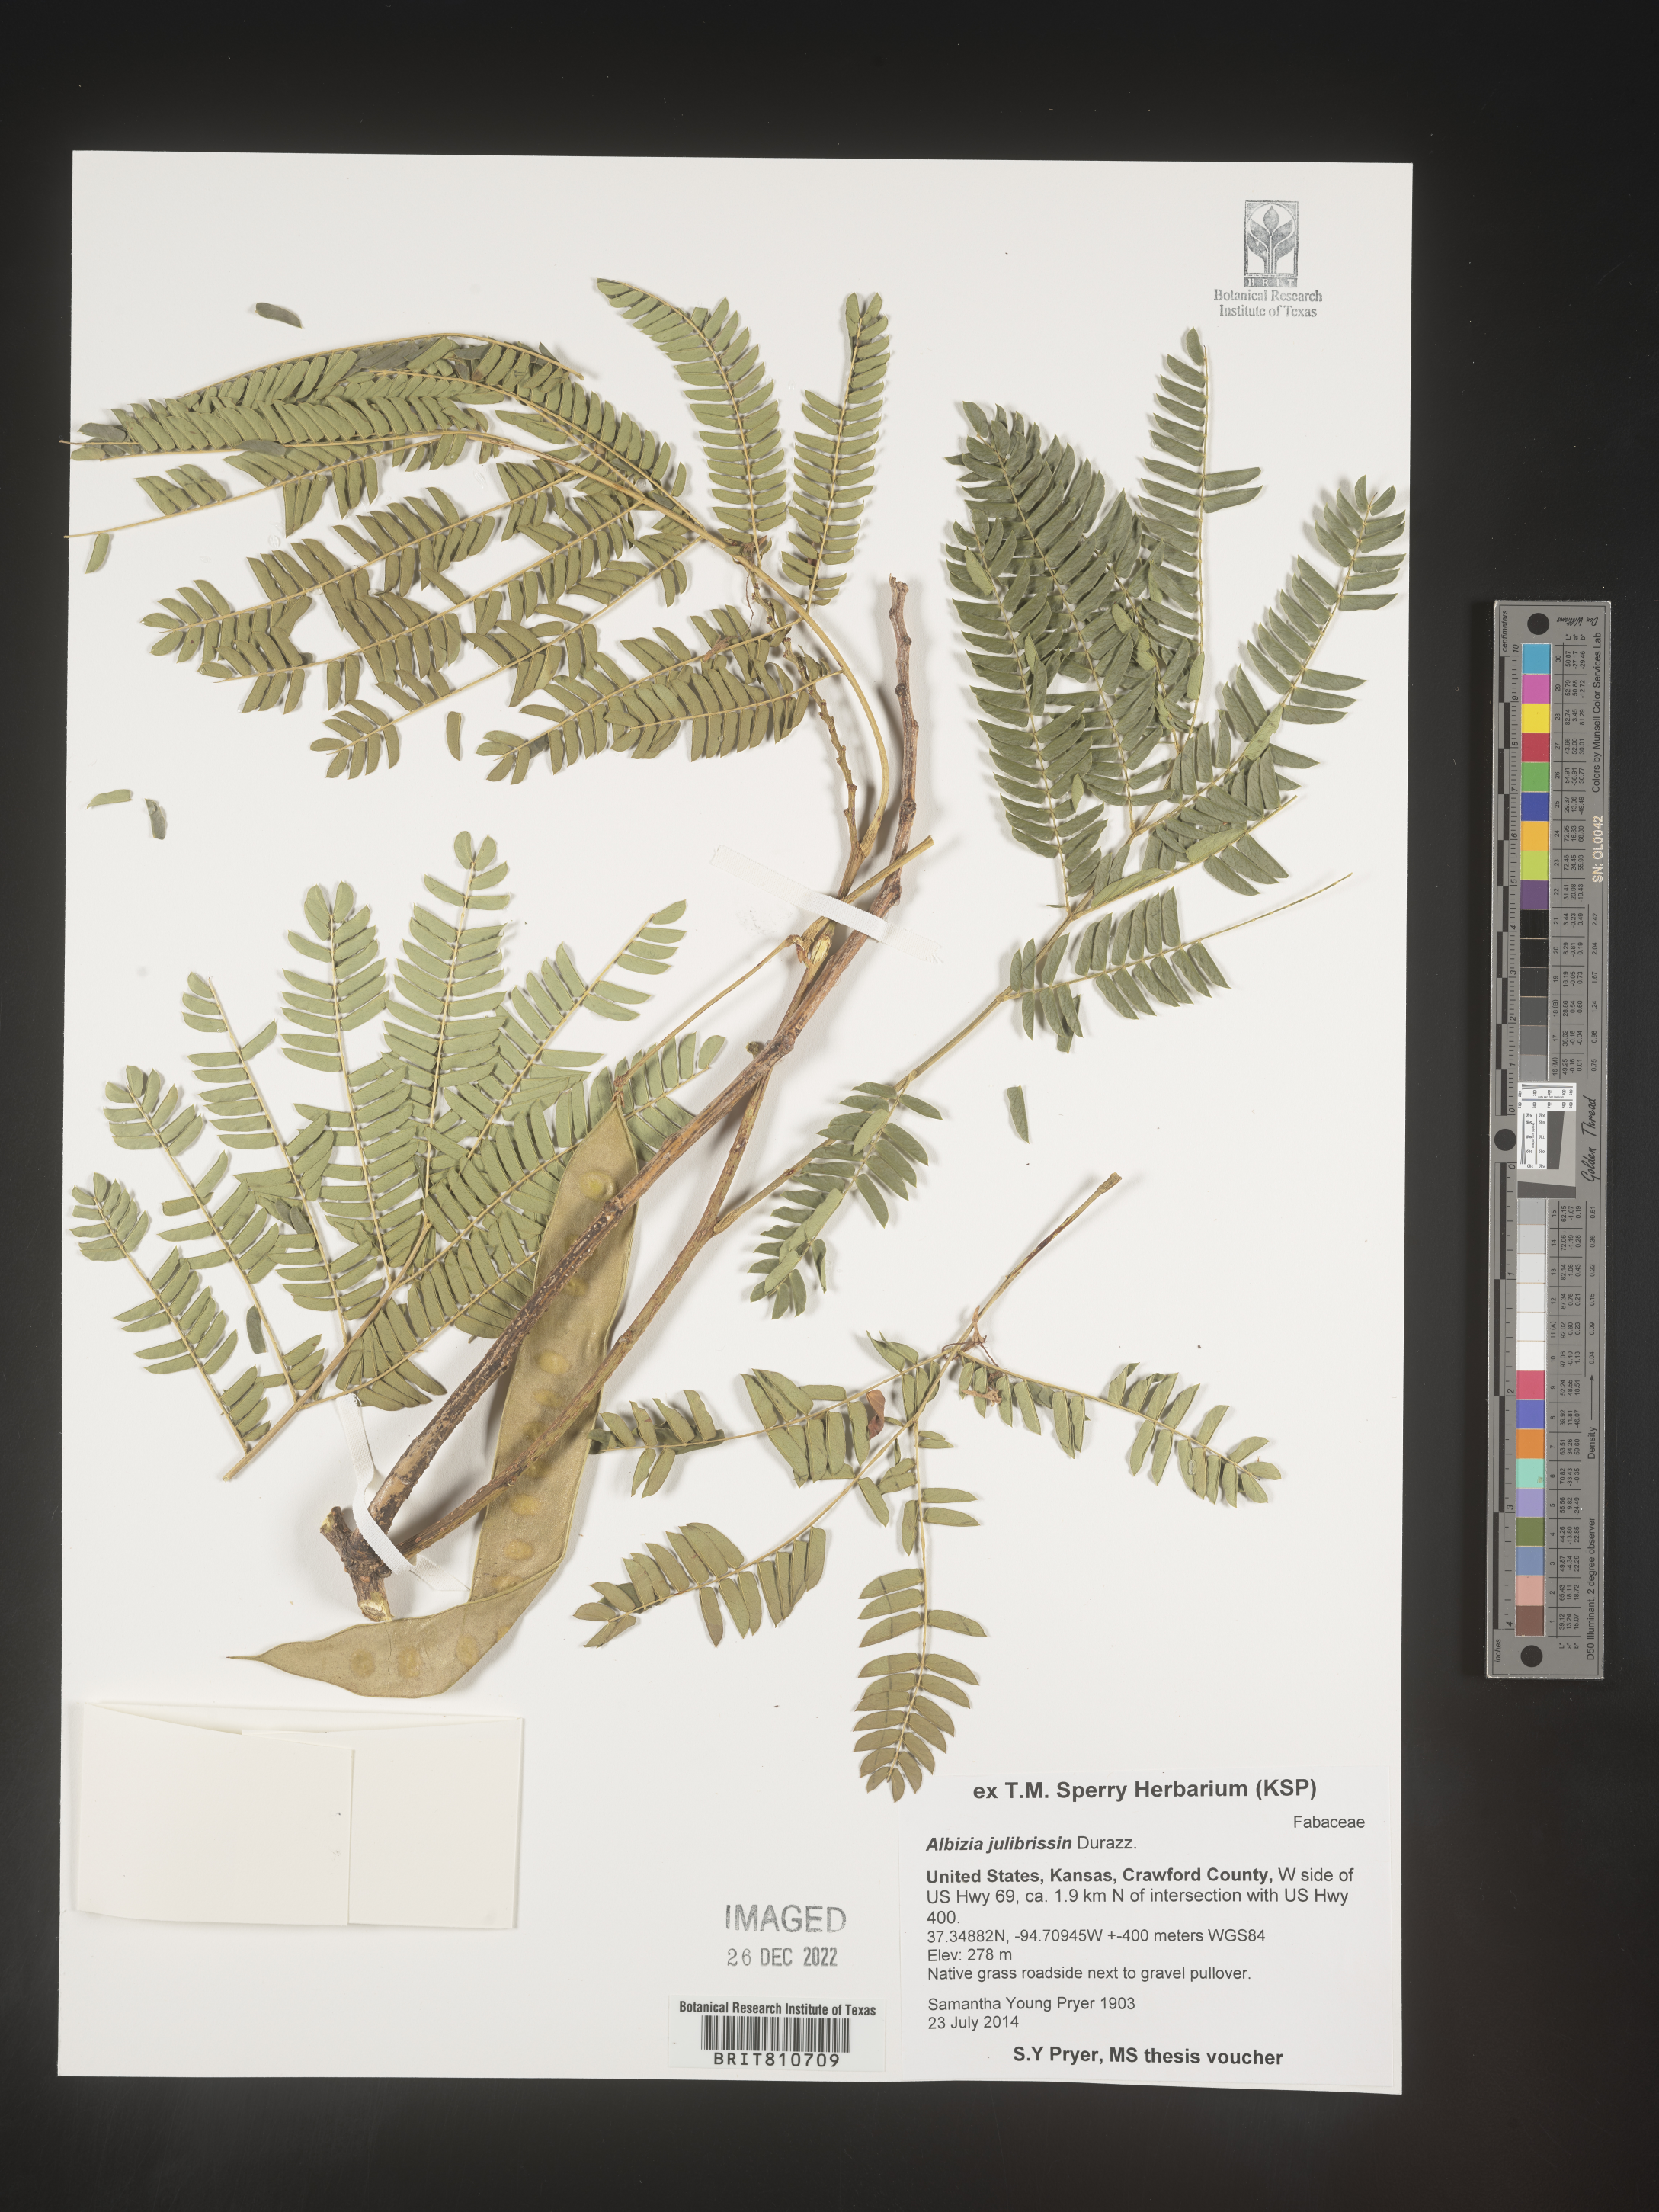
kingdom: Plantae
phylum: Tracheophyta
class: Magnoliopsida
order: Fabales
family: Fabaceae
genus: Albizia
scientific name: Albizia
